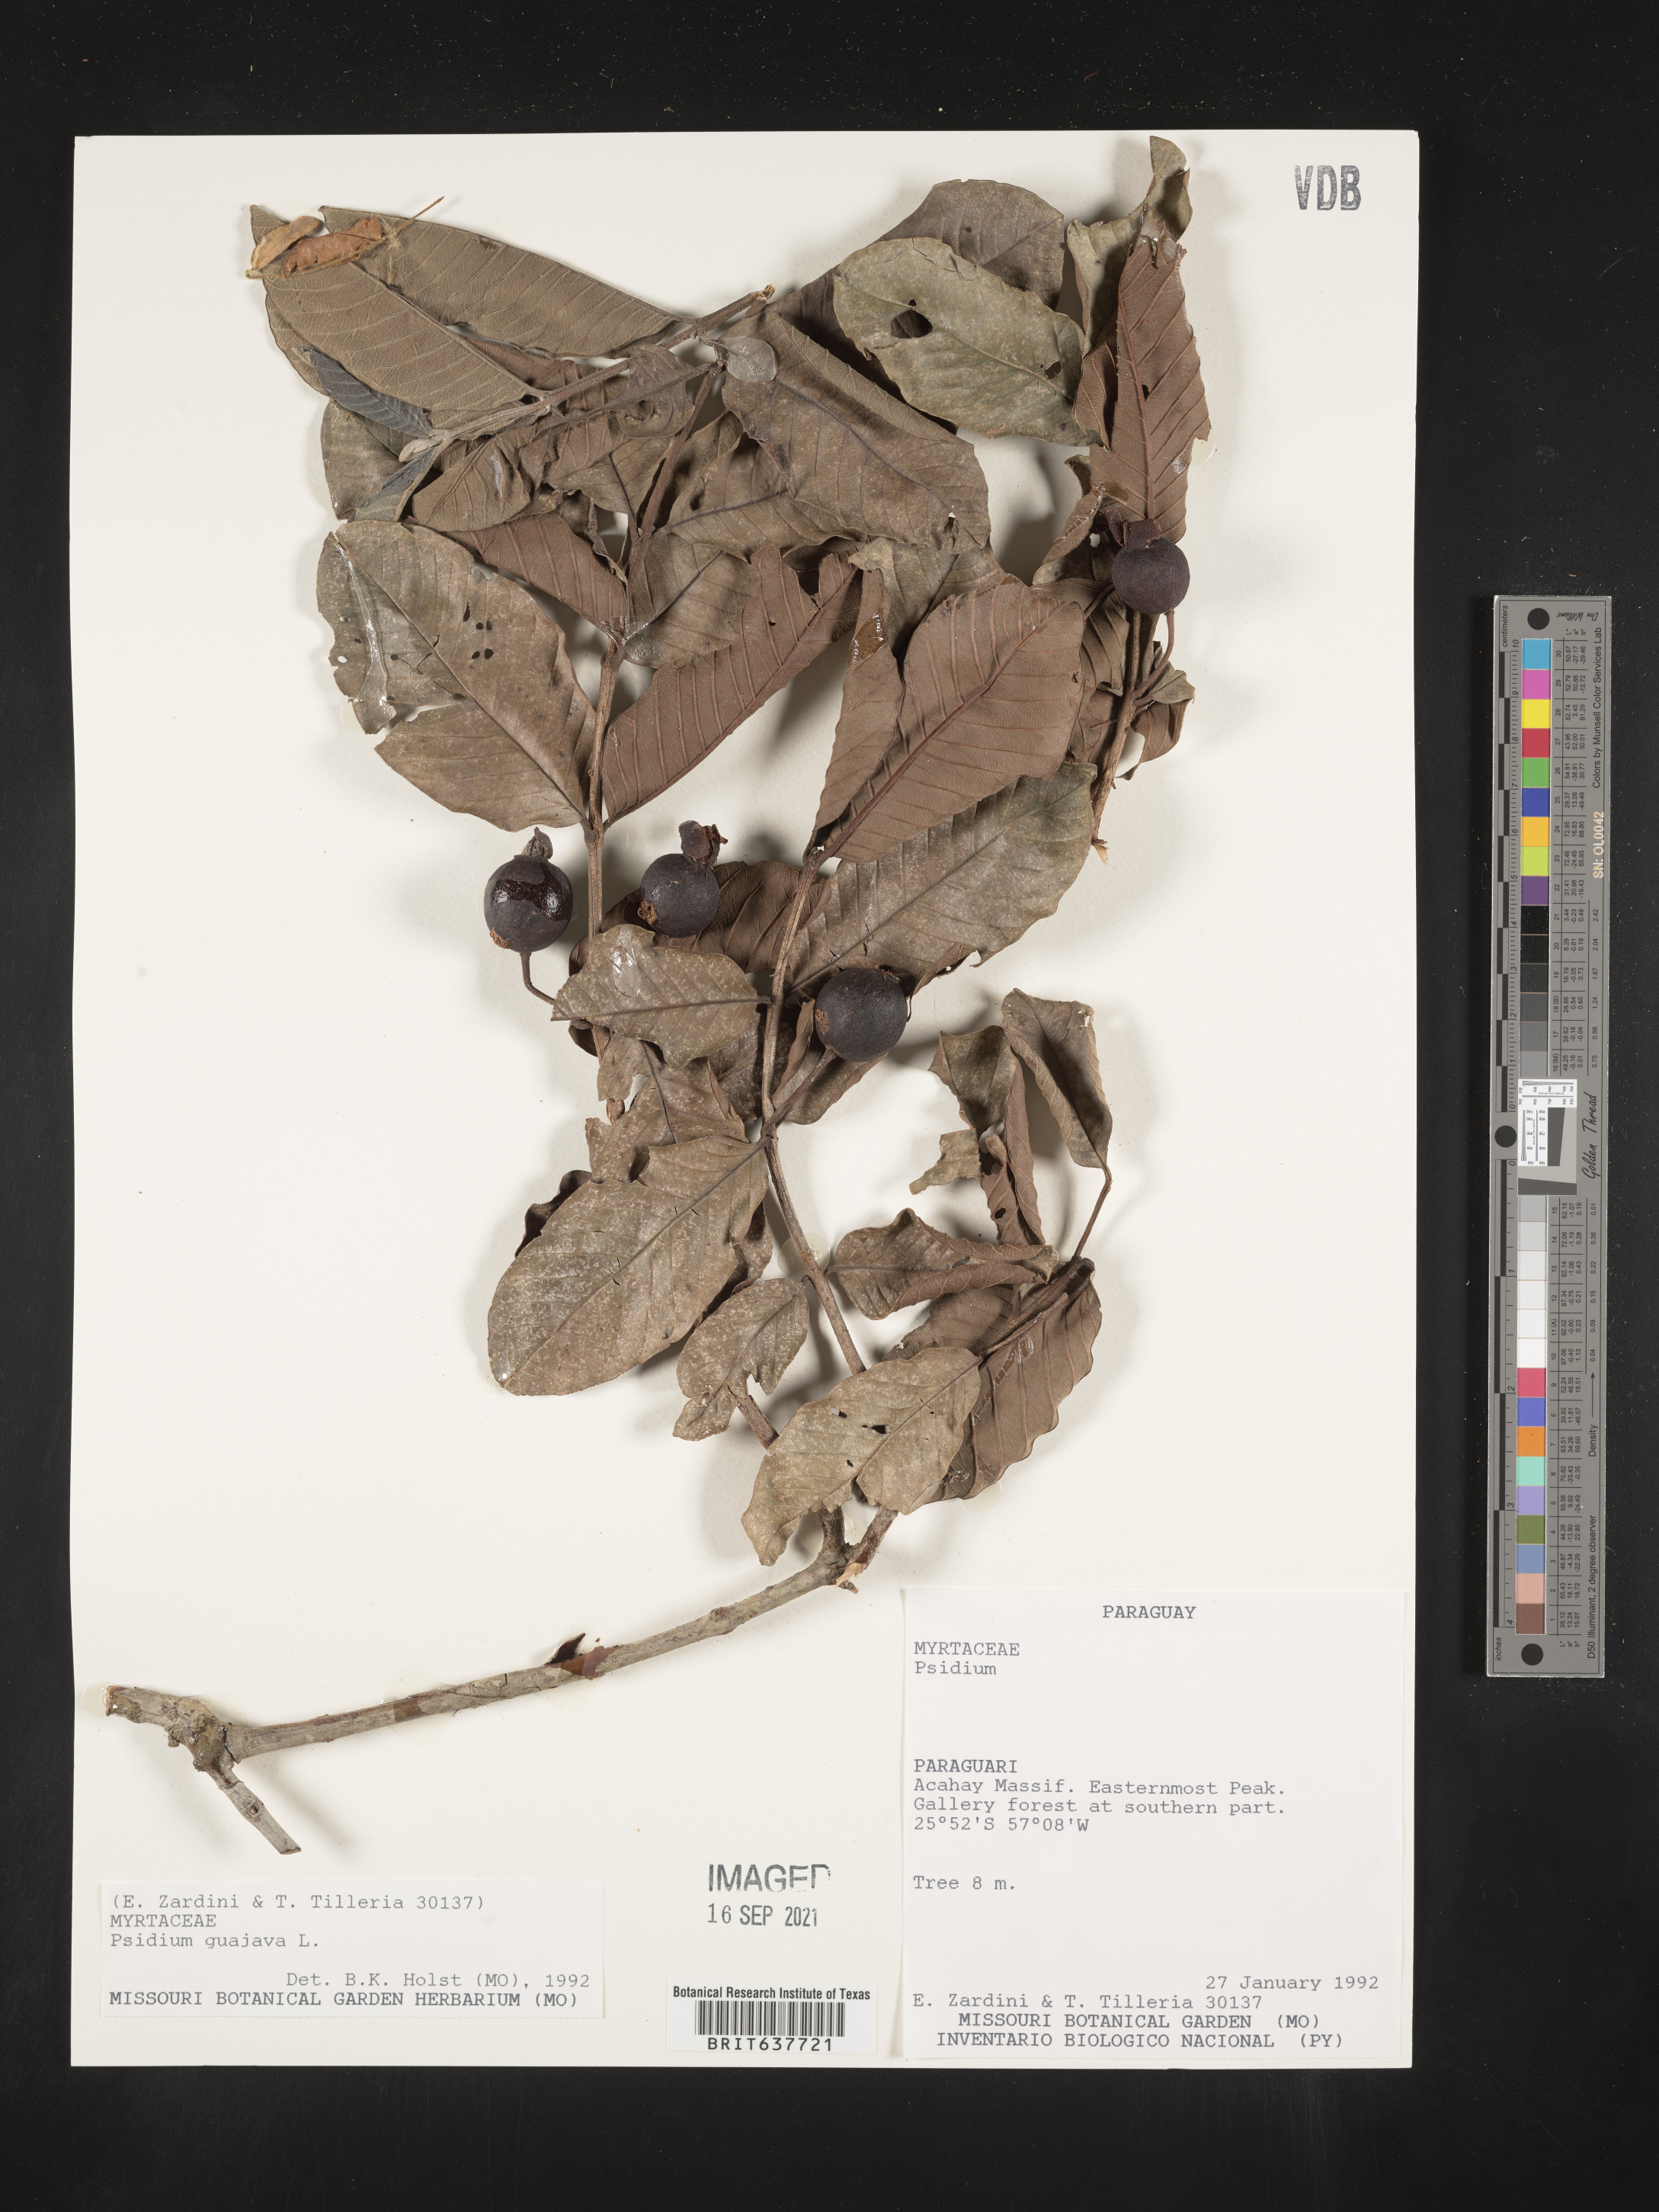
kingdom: Plantae
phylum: Tracheophyta
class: Magnoliopsida
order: Myrtales
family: Myrtaceae
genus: Psidium
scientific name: Psidium
